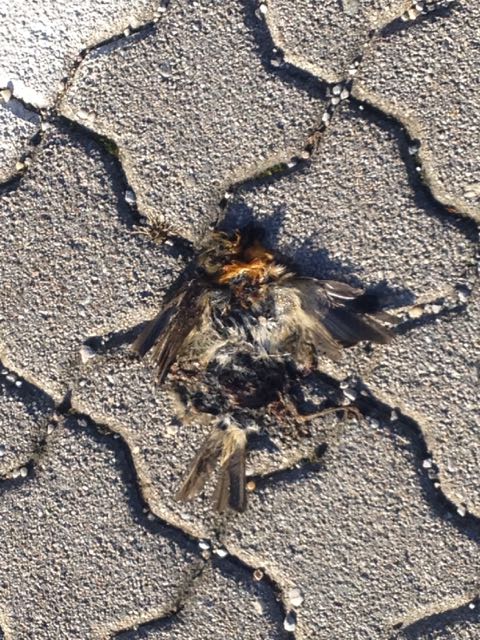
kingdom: Animalia
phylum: Chordata
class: Aves
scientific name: Aves
